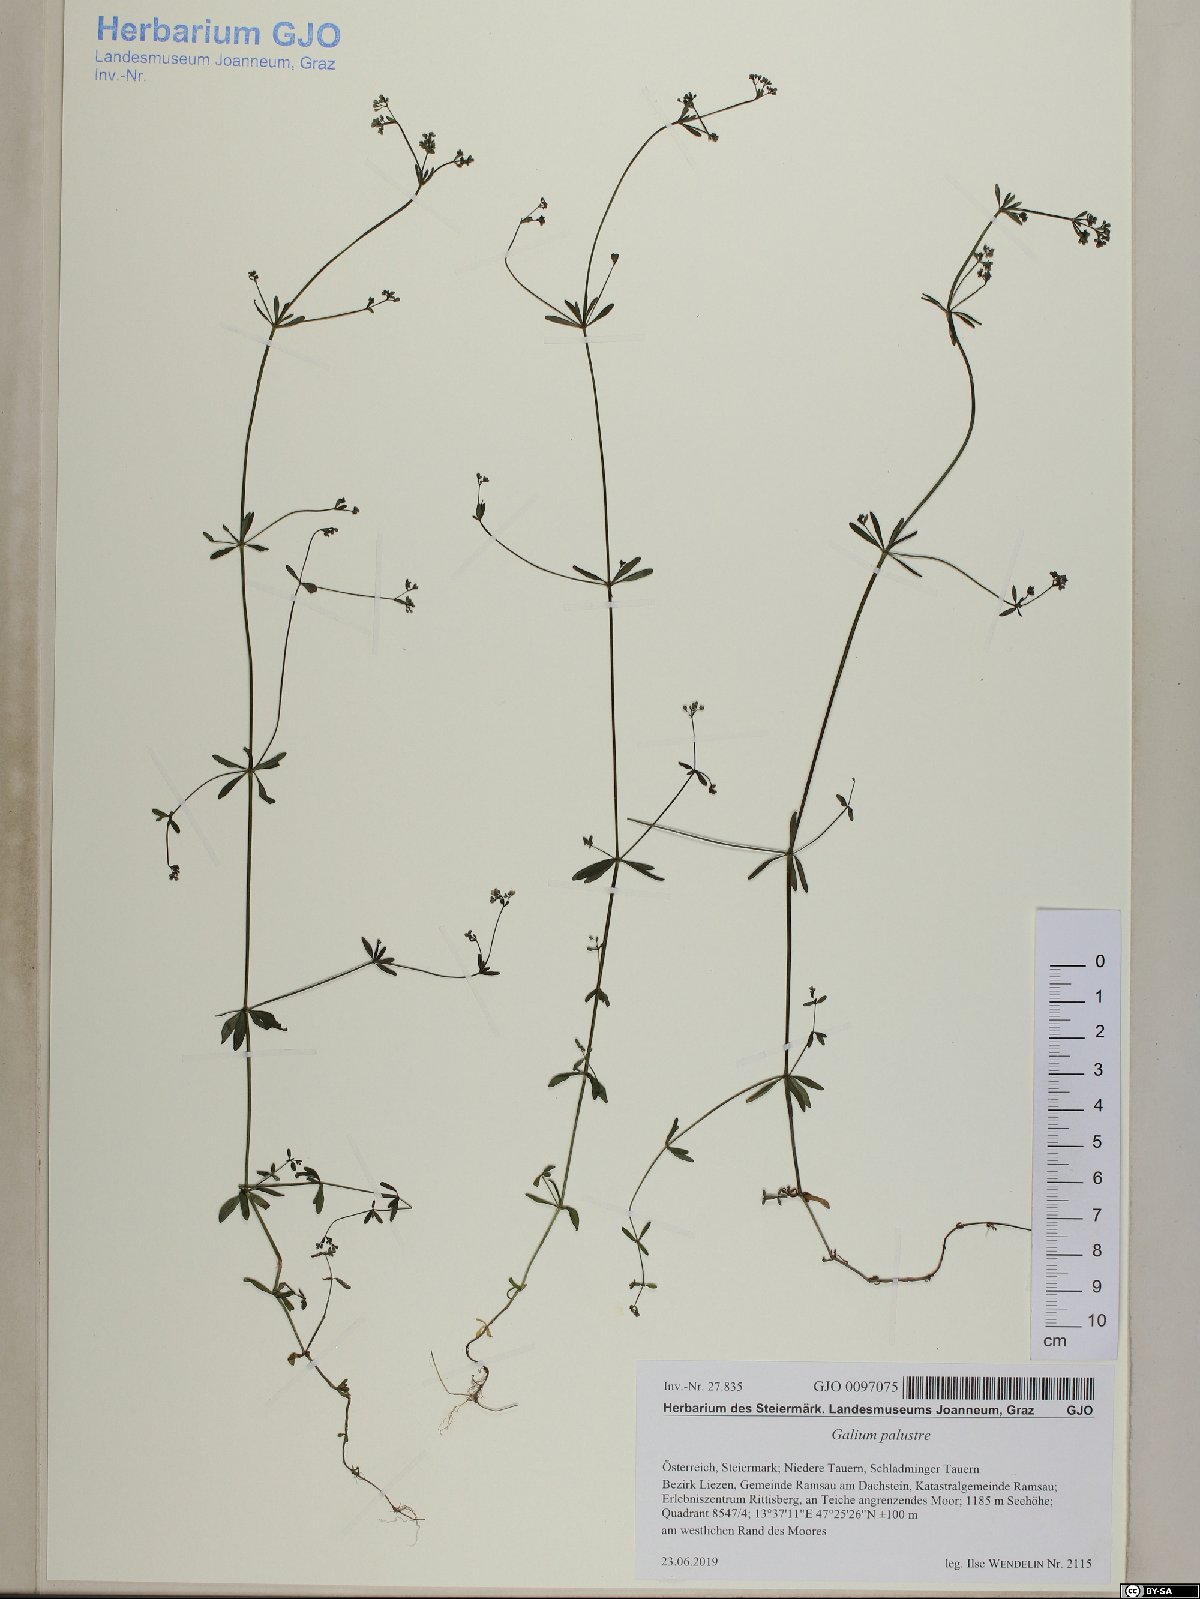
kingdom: Plantae
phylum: Tracheophyta
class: Magnoliopsida
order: Gentianales
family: Rubiaceae
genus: Galium
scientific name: Galium palustre
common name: Common marsh-bedstraw
